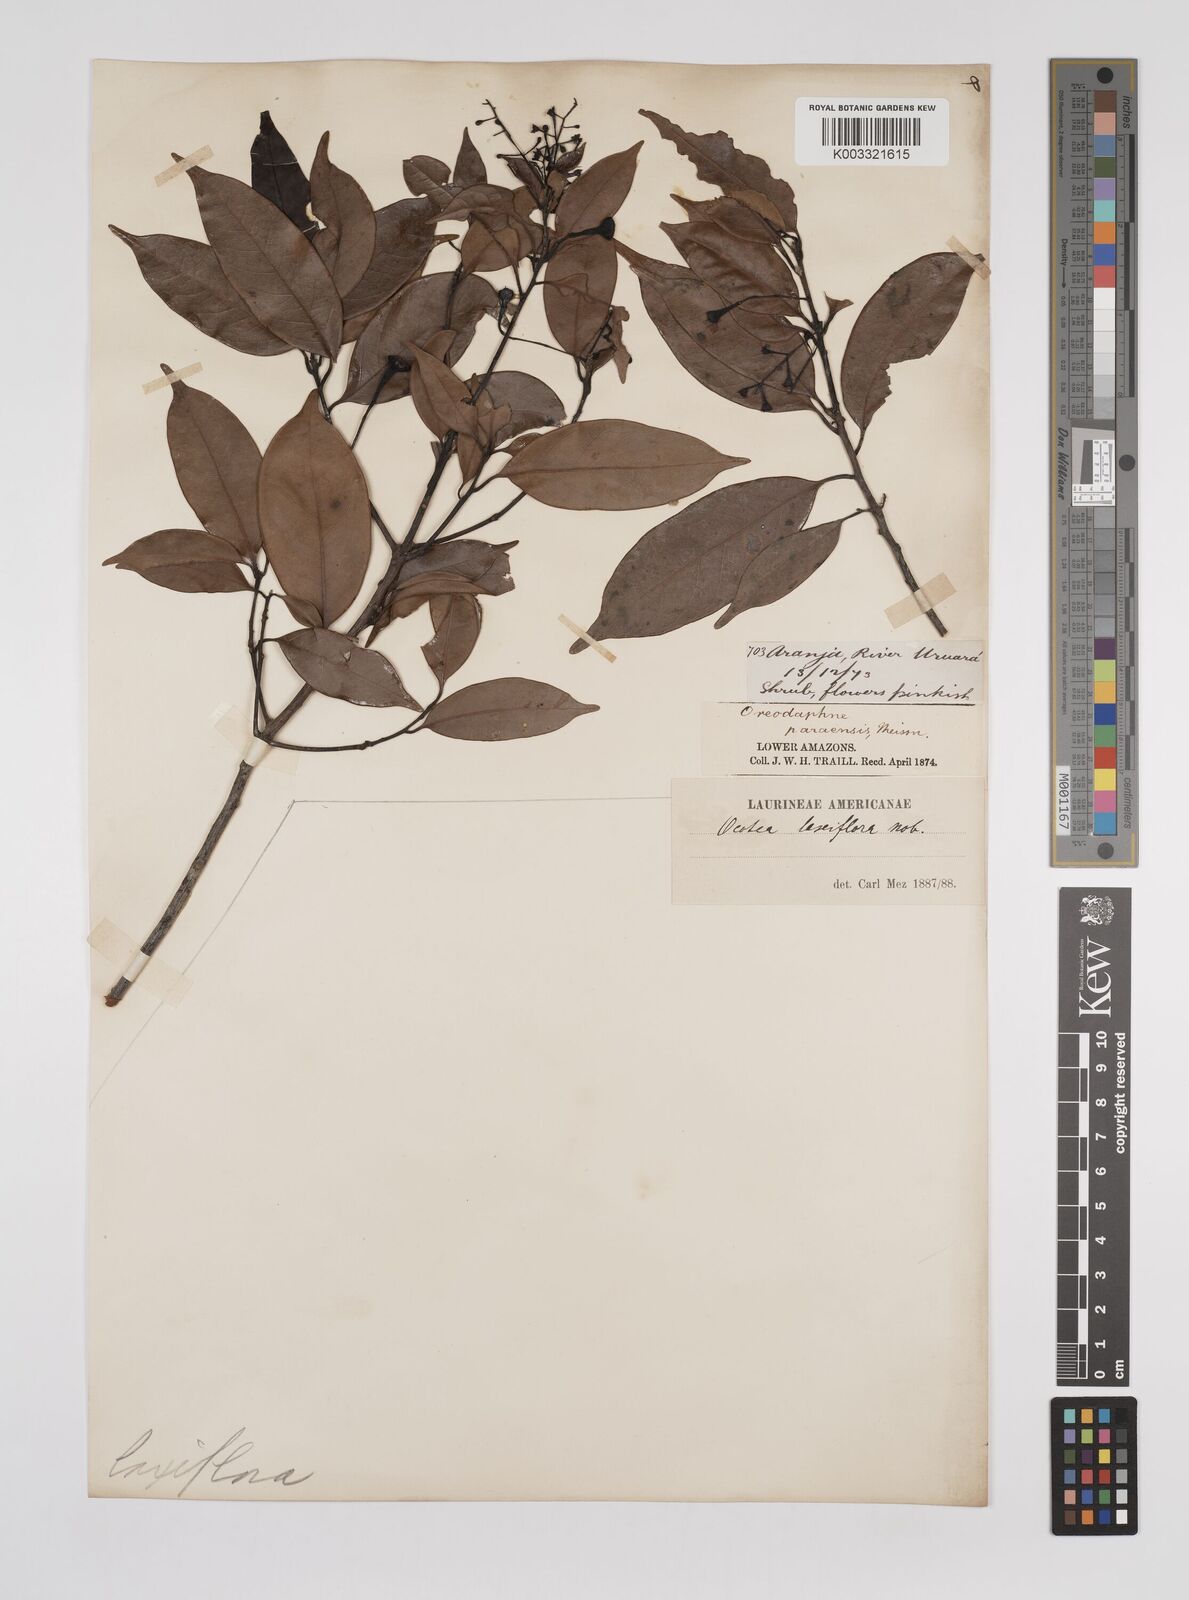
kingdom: Plantae
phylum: Tracheophyta
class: Magnoliopsida
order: Laurales
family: Lauraceae
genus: Ocotea
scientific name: Ocotea pauciflora
